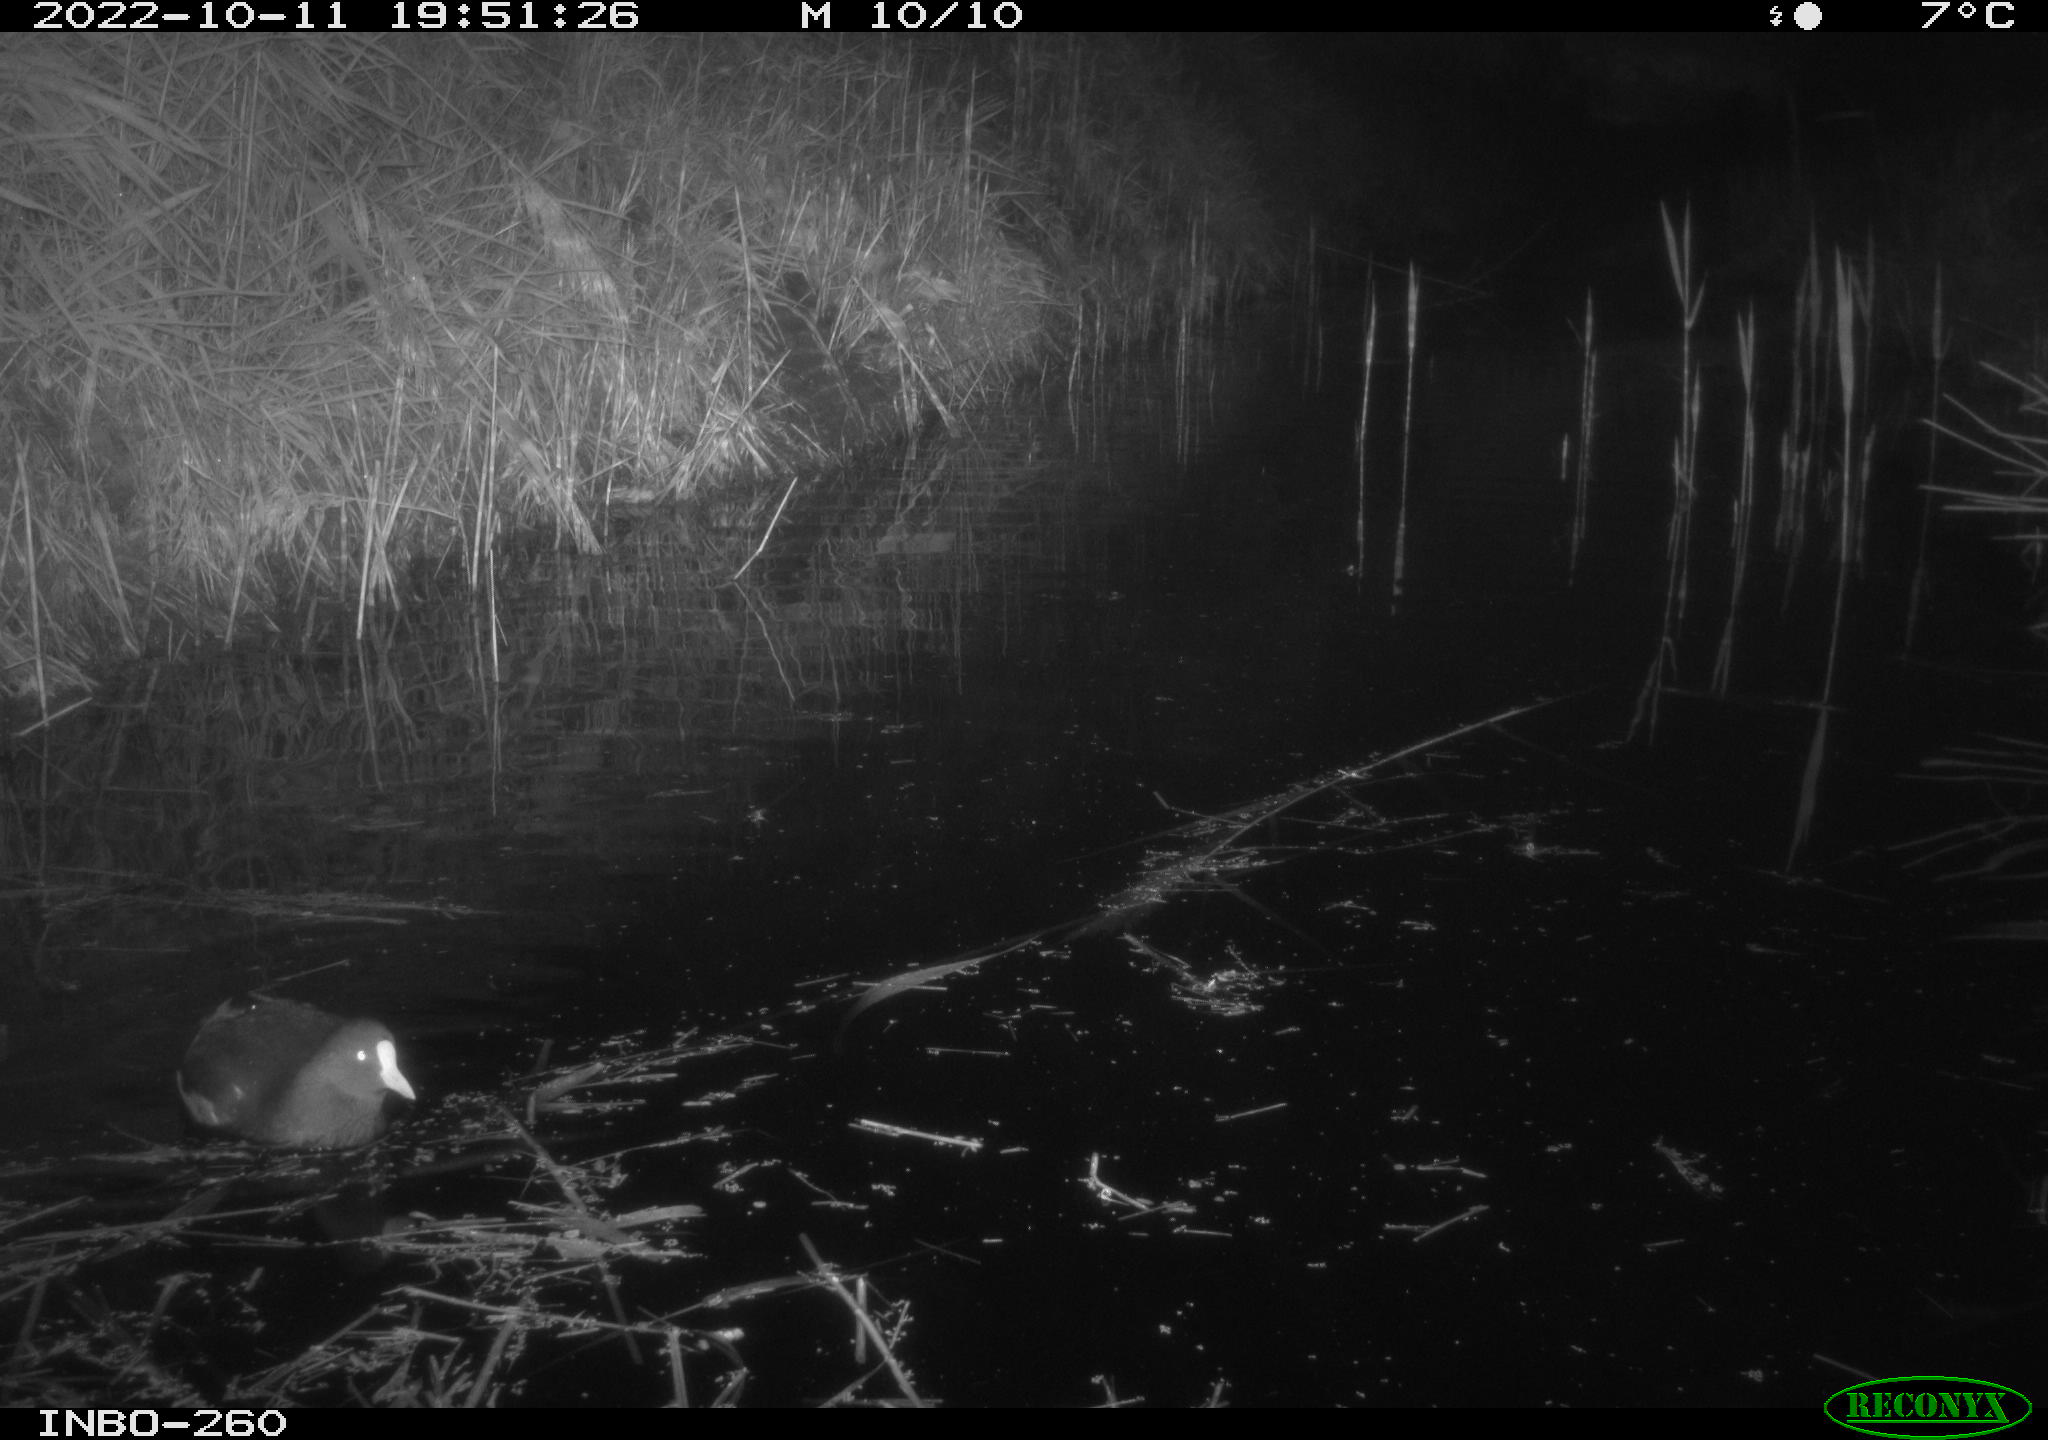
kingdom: Animalia
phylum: Chordata
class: Aves
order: Gruiformes
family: Rallidae
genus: Fulica
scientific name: Fulica atra
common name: Eurasian coot
